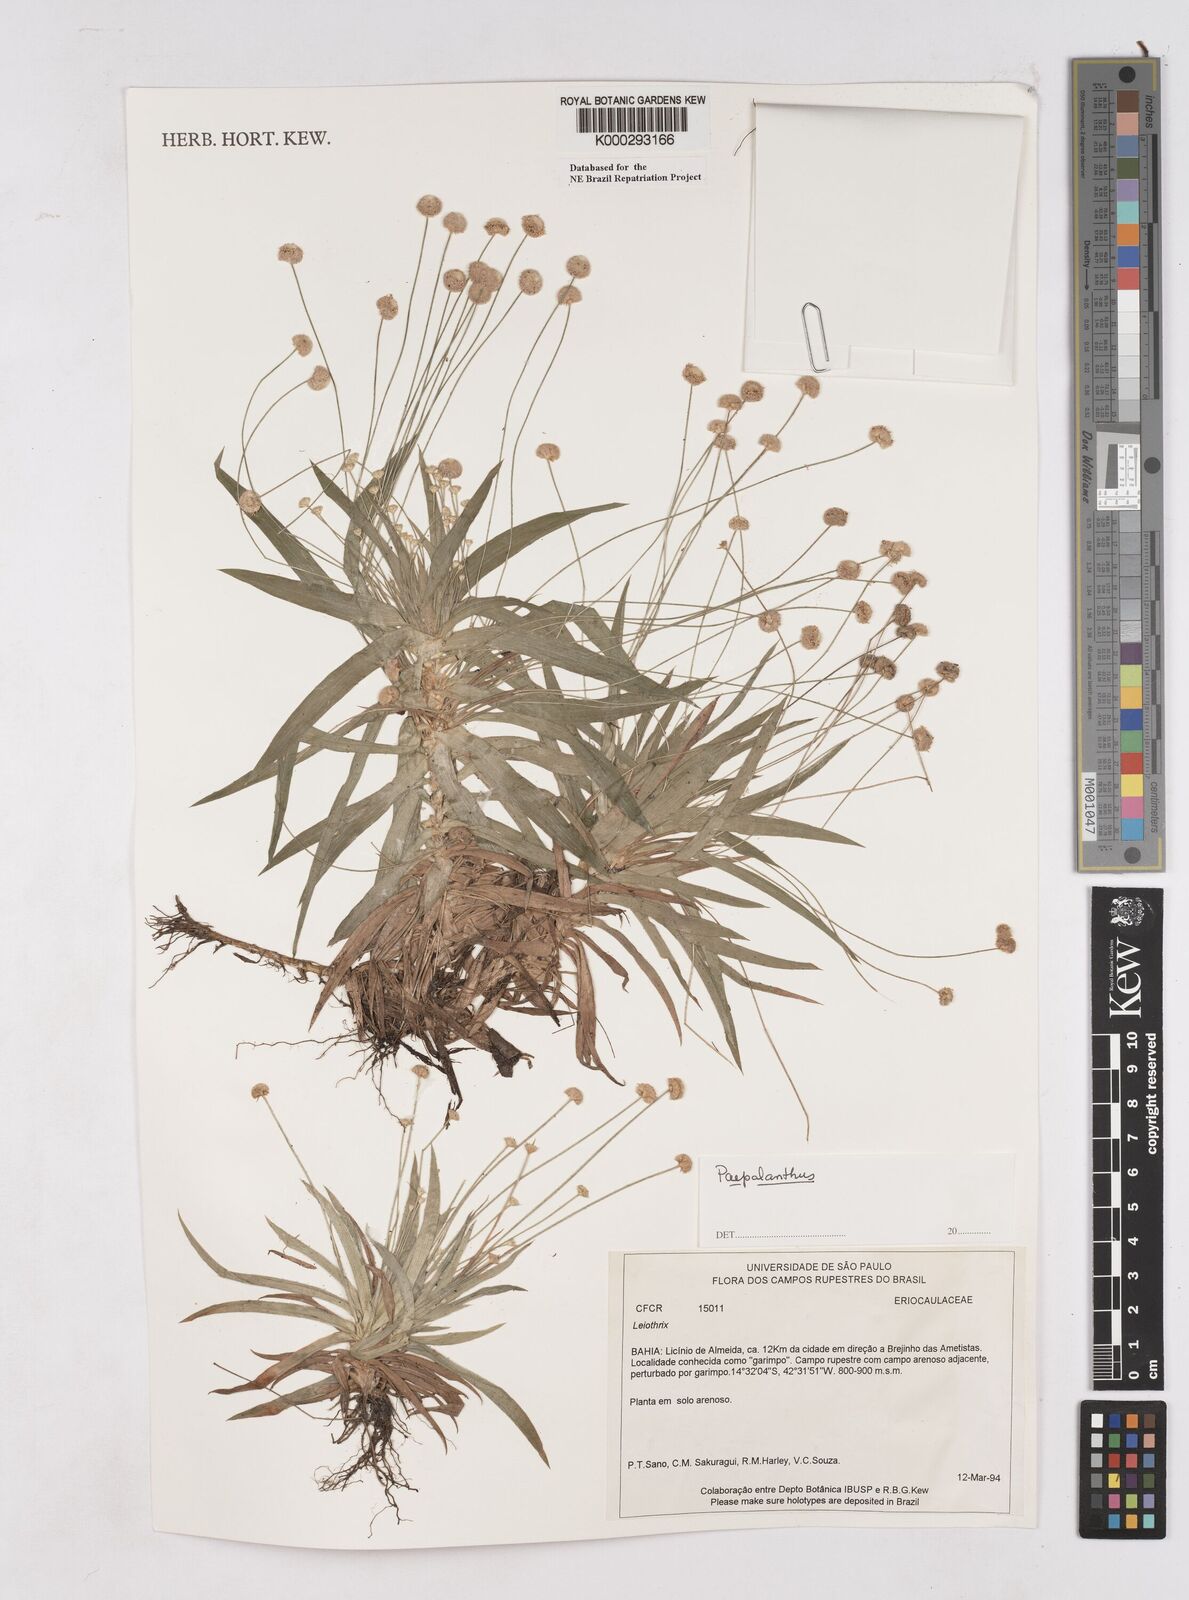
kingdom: Plantae
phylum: Tracheophyta
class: Liliopsida
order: Poales
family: Eriocaulaceae
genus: Paepalanthus
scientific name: Paepalanthus
